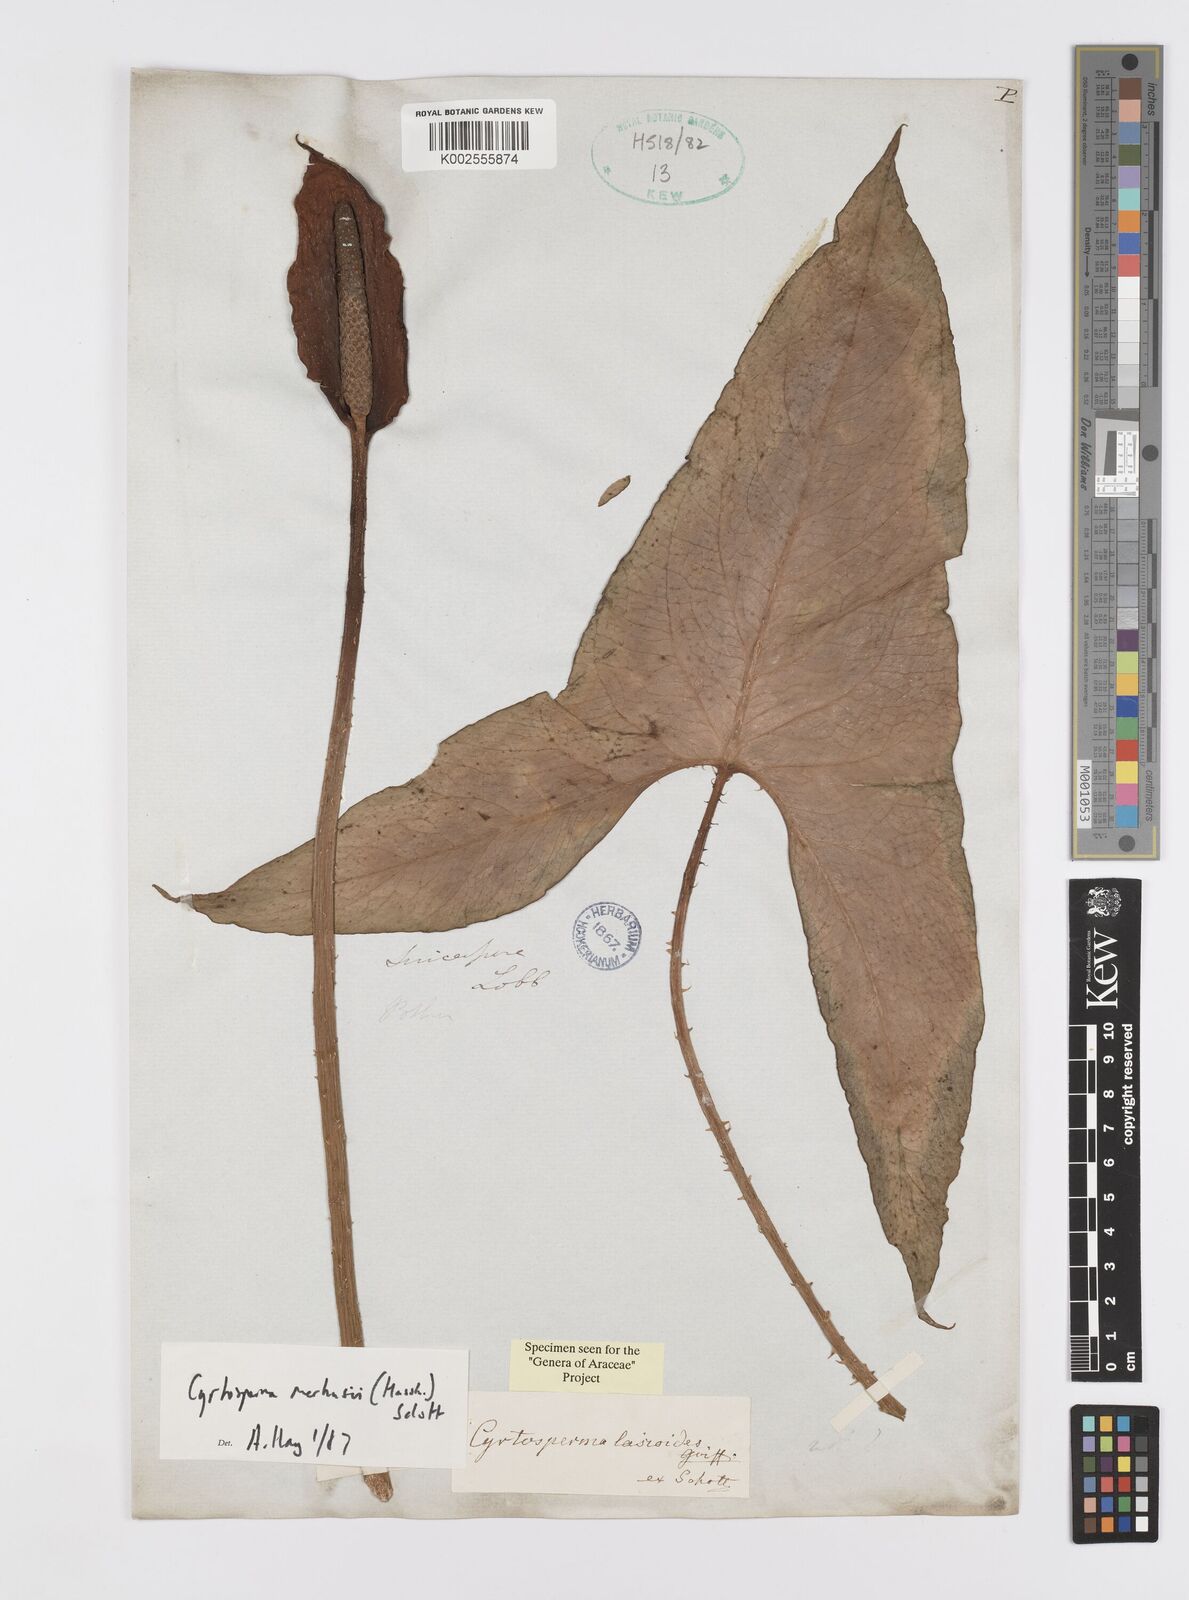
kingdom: Plantae
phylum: Tracheophyta
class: Liliopsida
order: Alismatales
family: Araceae
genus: Cyrtosperma
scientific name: Cyrtosperma merkusii
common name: Giant swamp-taro
